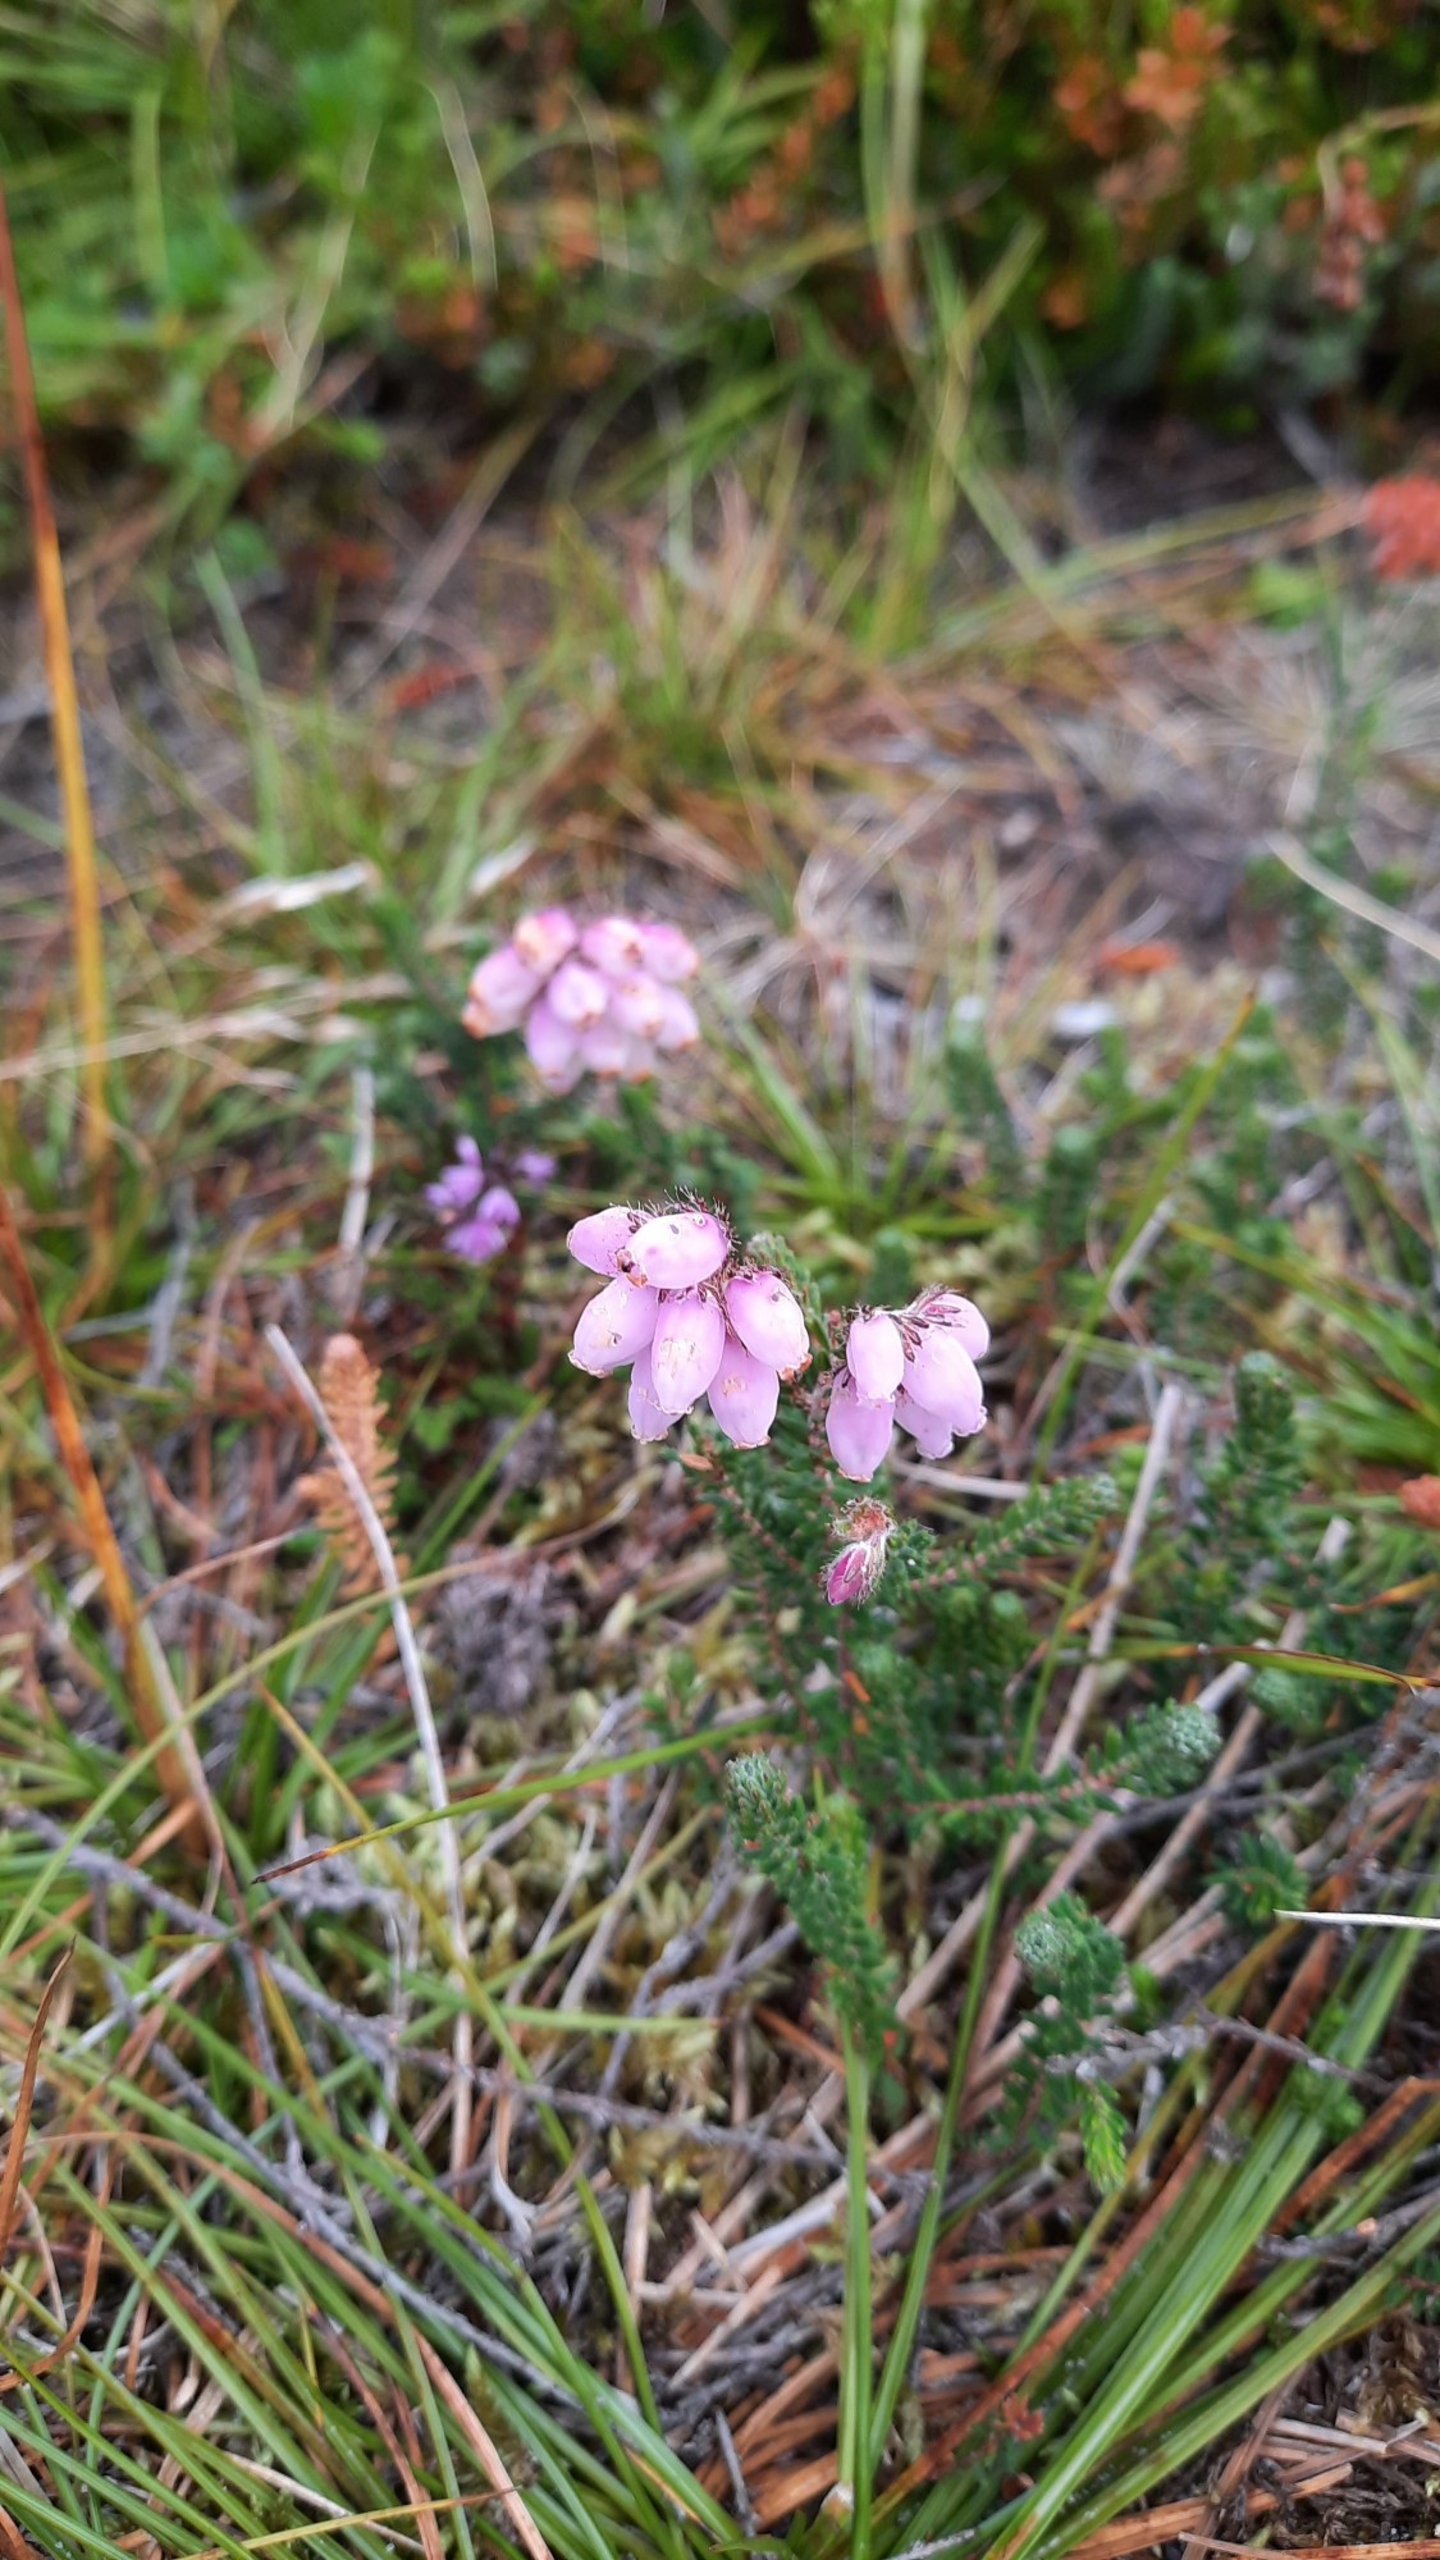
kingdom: Plantae
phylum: Tracheophyta
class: Magnoliopsida
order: Ericales
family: Ericaceae
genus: Erica
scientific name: Erica tetralix
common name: Klokkelyng
